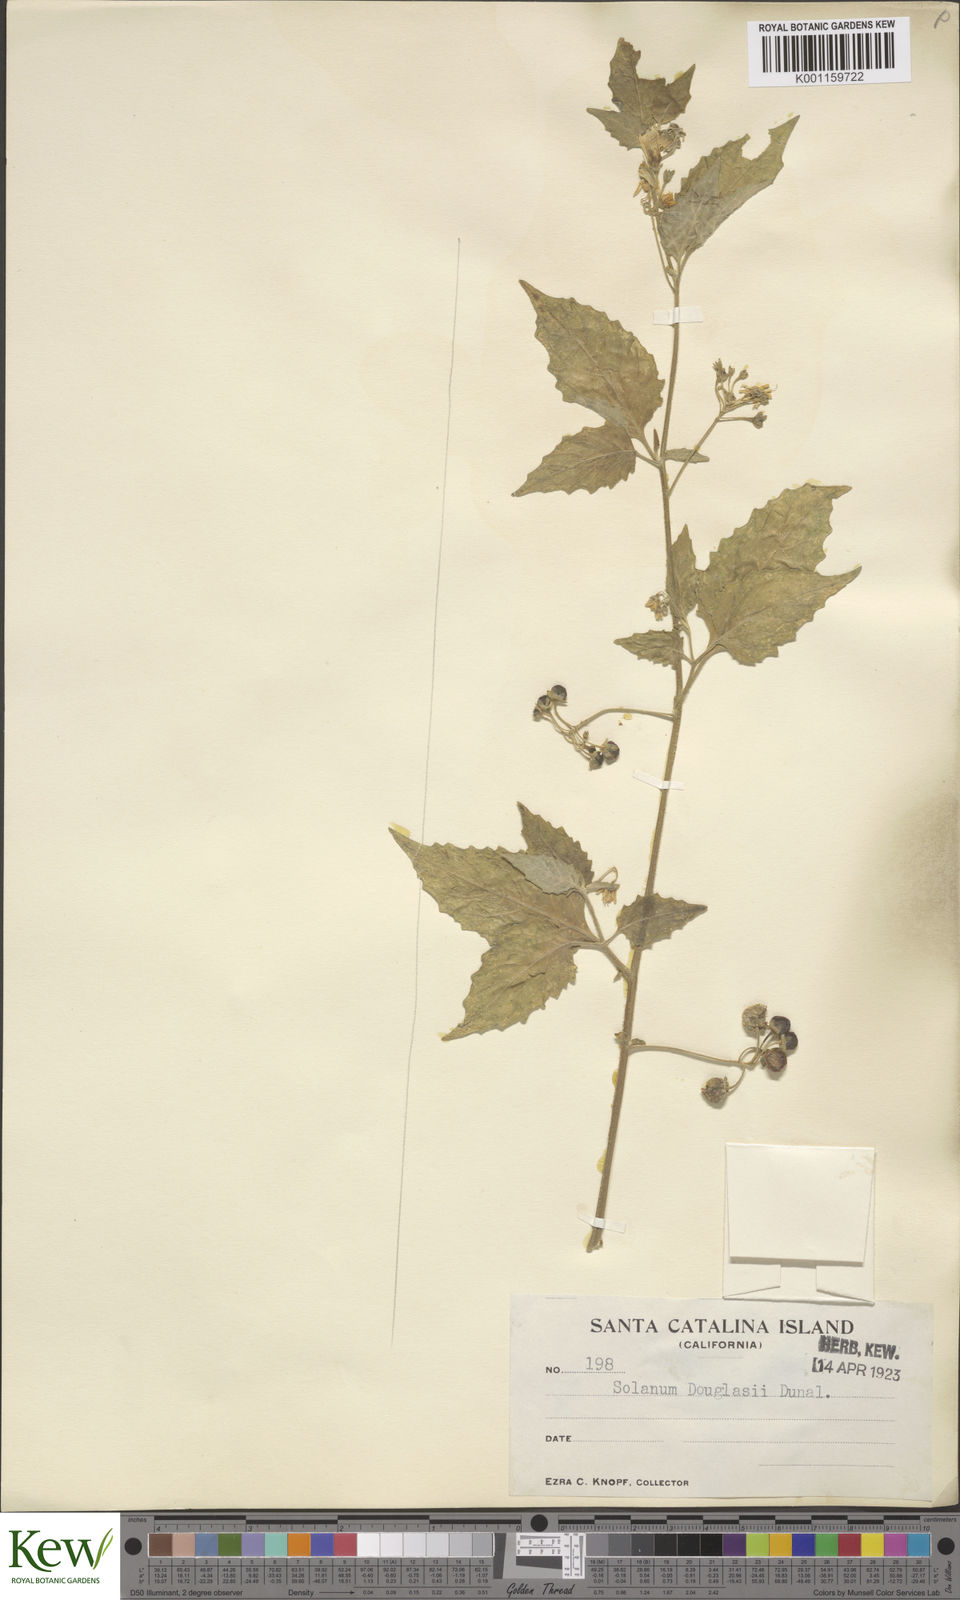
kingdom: Plantae
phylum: Tracheophyta
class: Magnoliopsida
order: Solanales
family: Solanaceae
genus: Solanum
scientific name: Solanum douglasii
